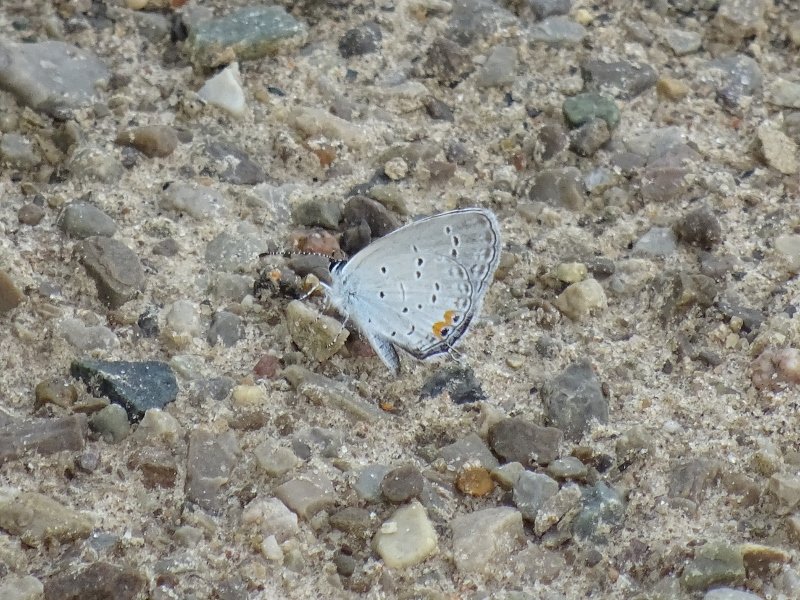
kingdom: Animalia
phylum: Arthropoda
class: Insecta
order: Lepidoptera
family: Lycaenidae
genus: Elkalyce
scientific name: Elkalyce comyntas
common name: Eastern Tailed-Blue
